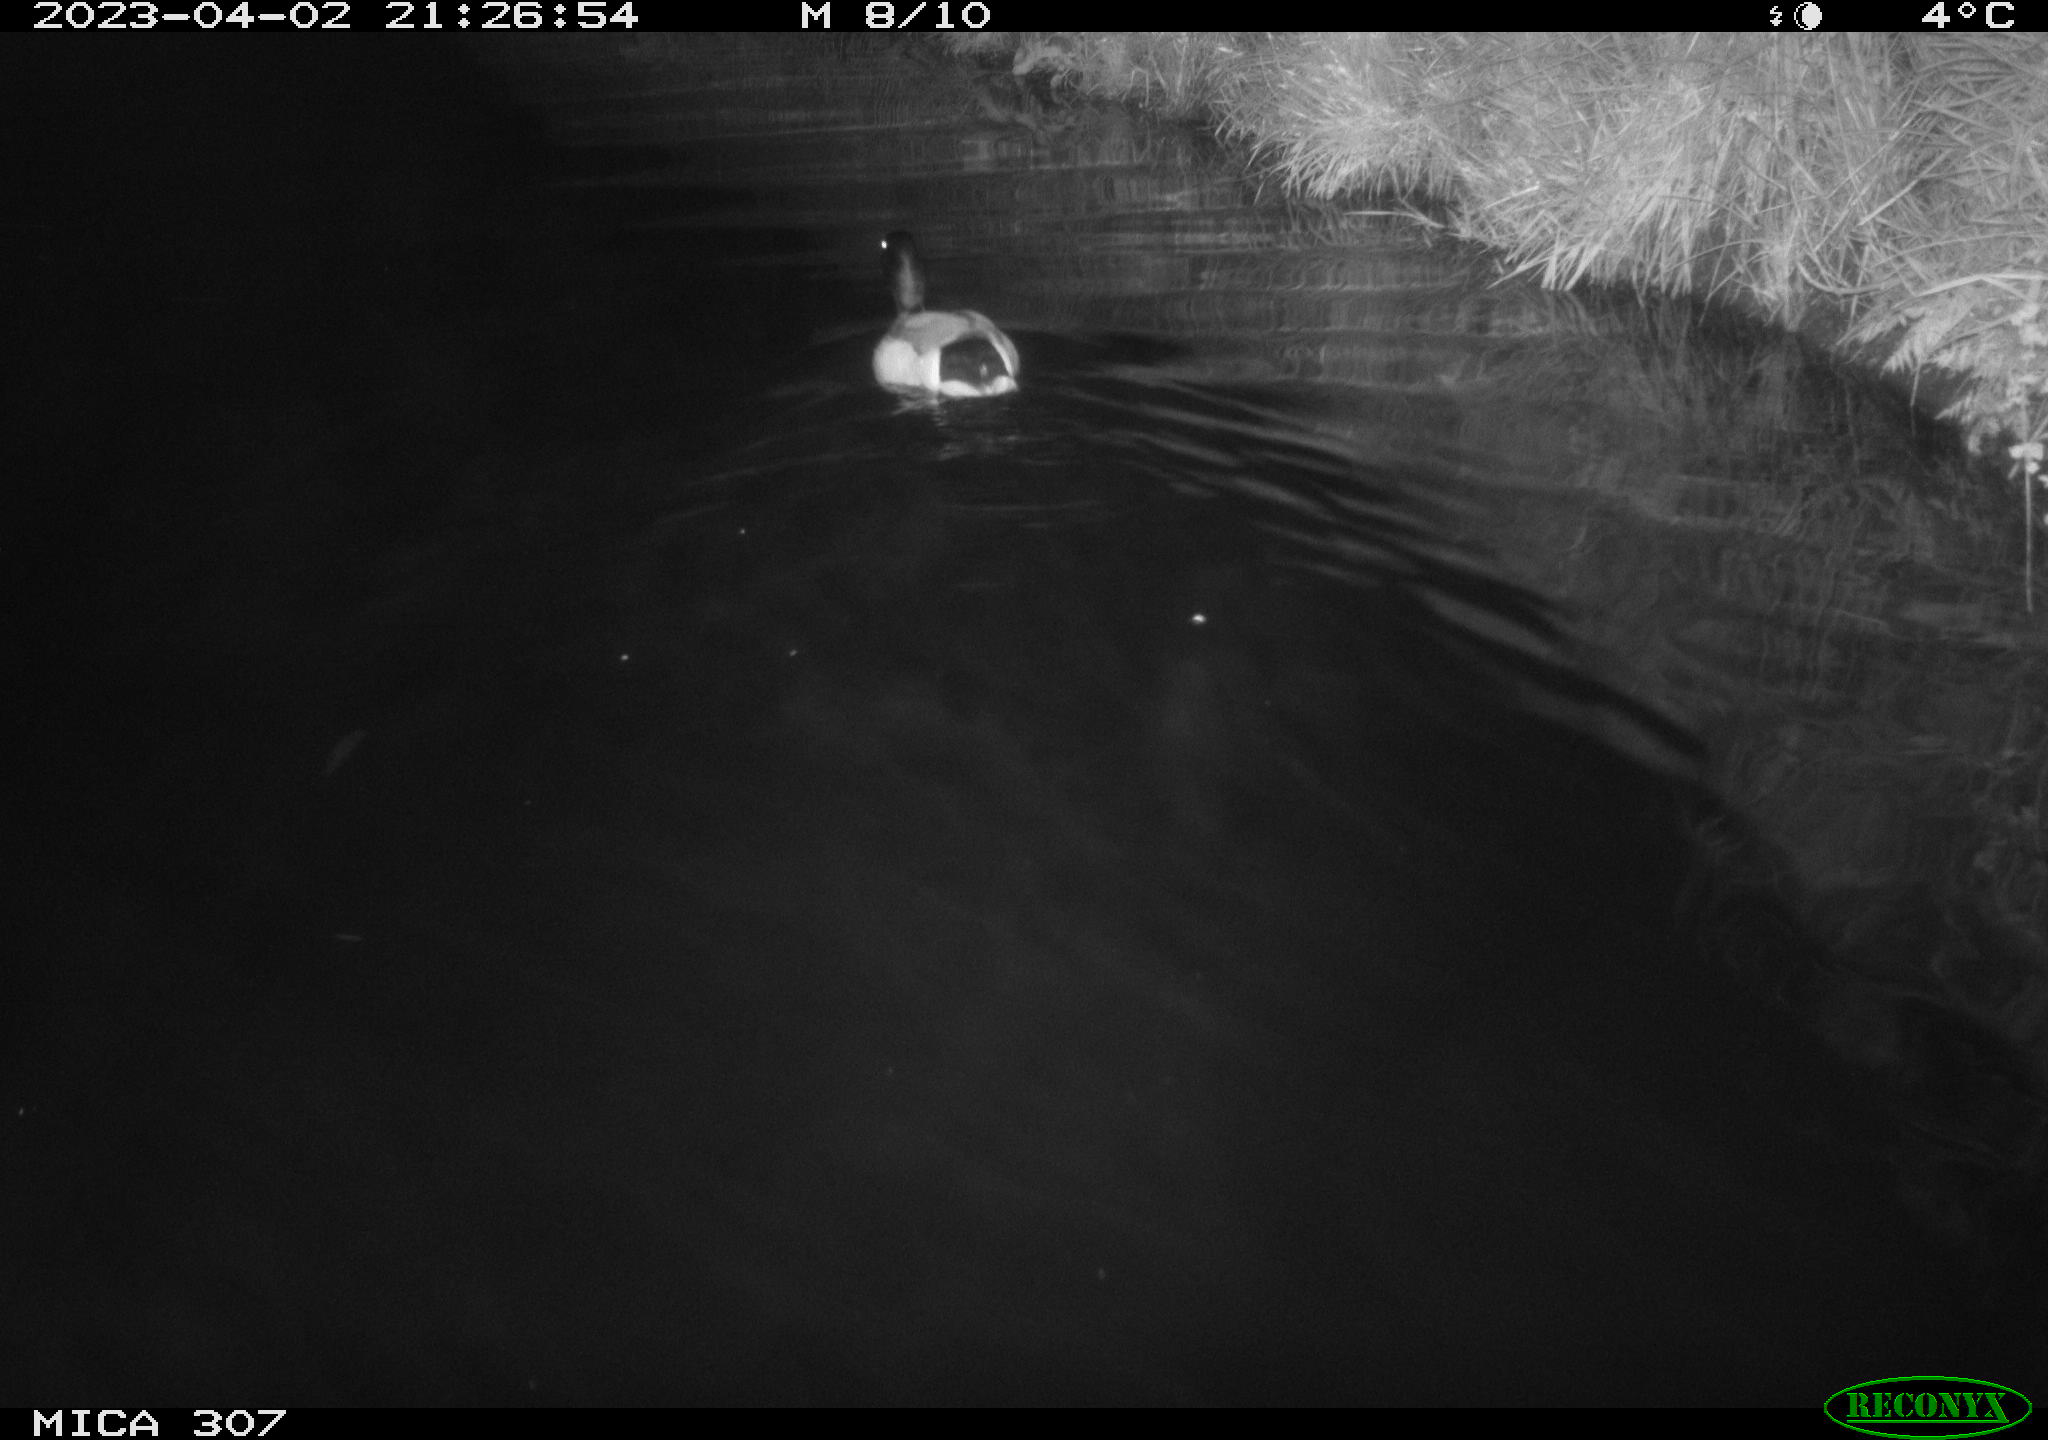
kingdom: Animalia
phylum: Chordata
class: Aves
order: Anseriformes
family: Anatidae
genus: Anas
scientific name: Anas
